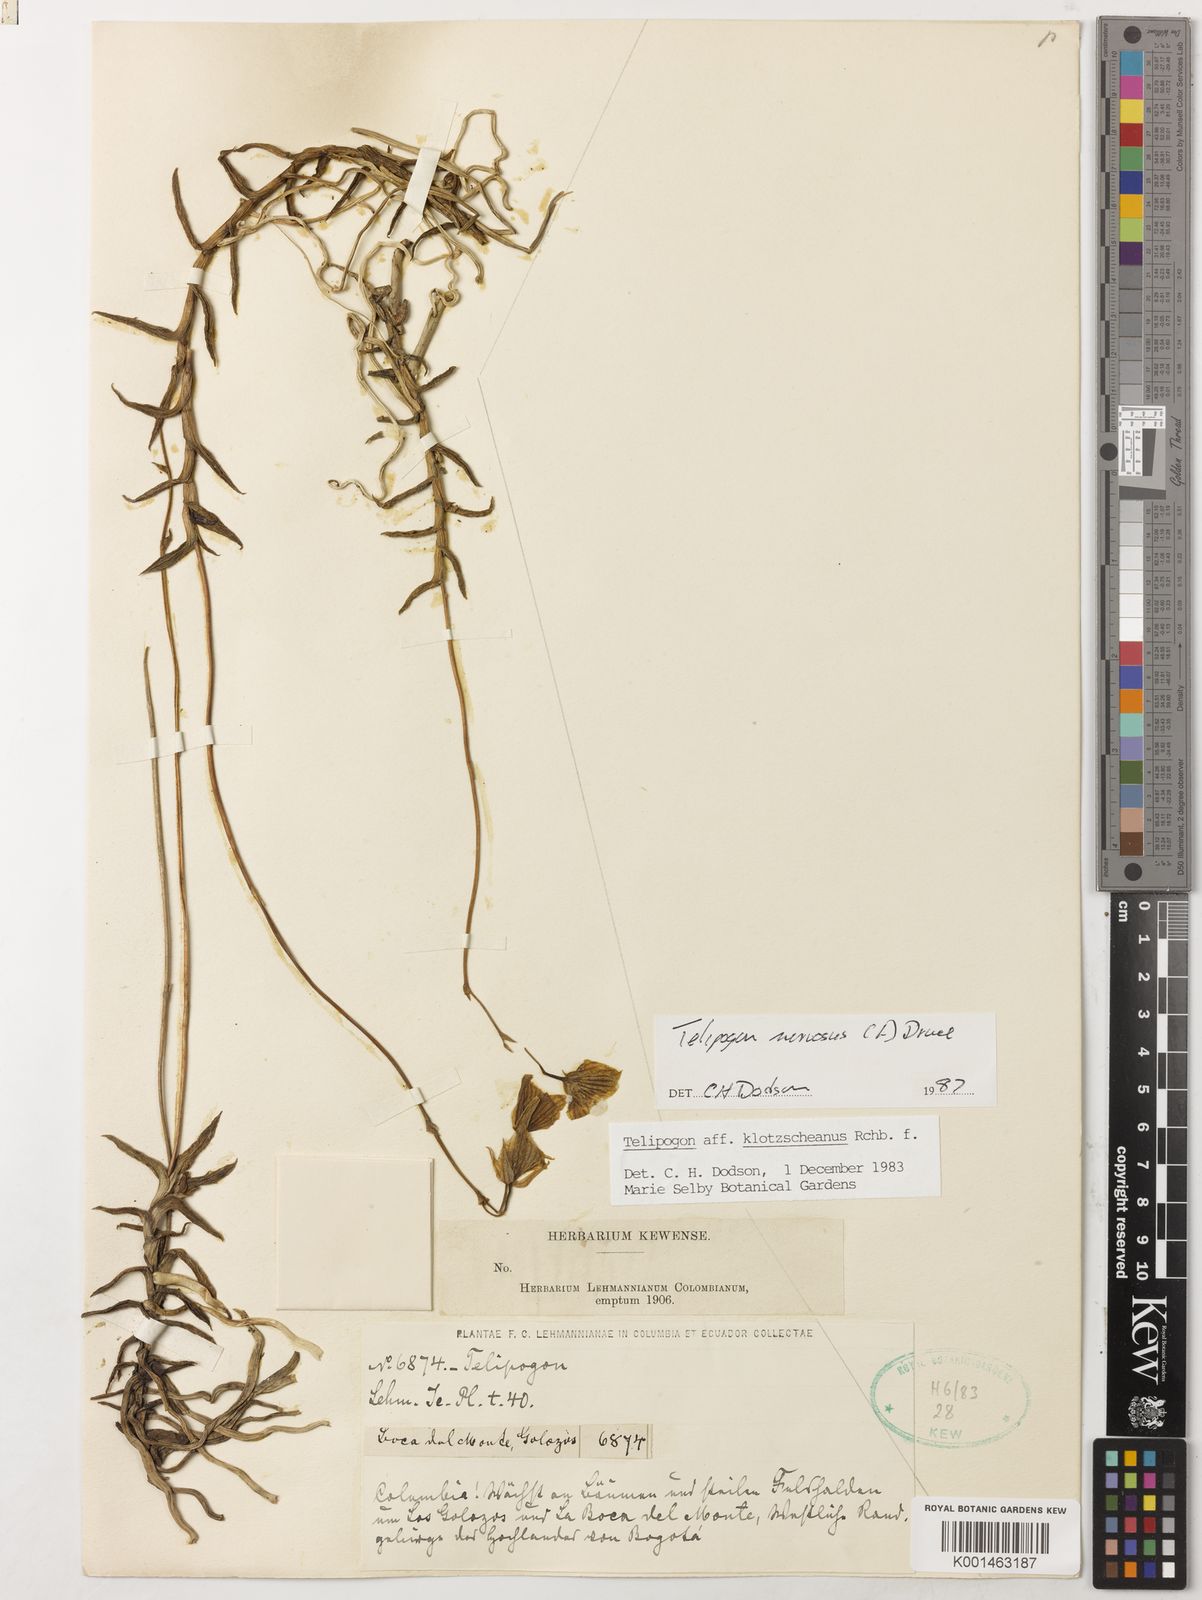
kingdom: Plantae
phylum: Tracheophyta
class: Liliopsida
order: Asparagales
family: Orchidaceae
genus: Telipogon
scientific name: Telipogon nervosus
